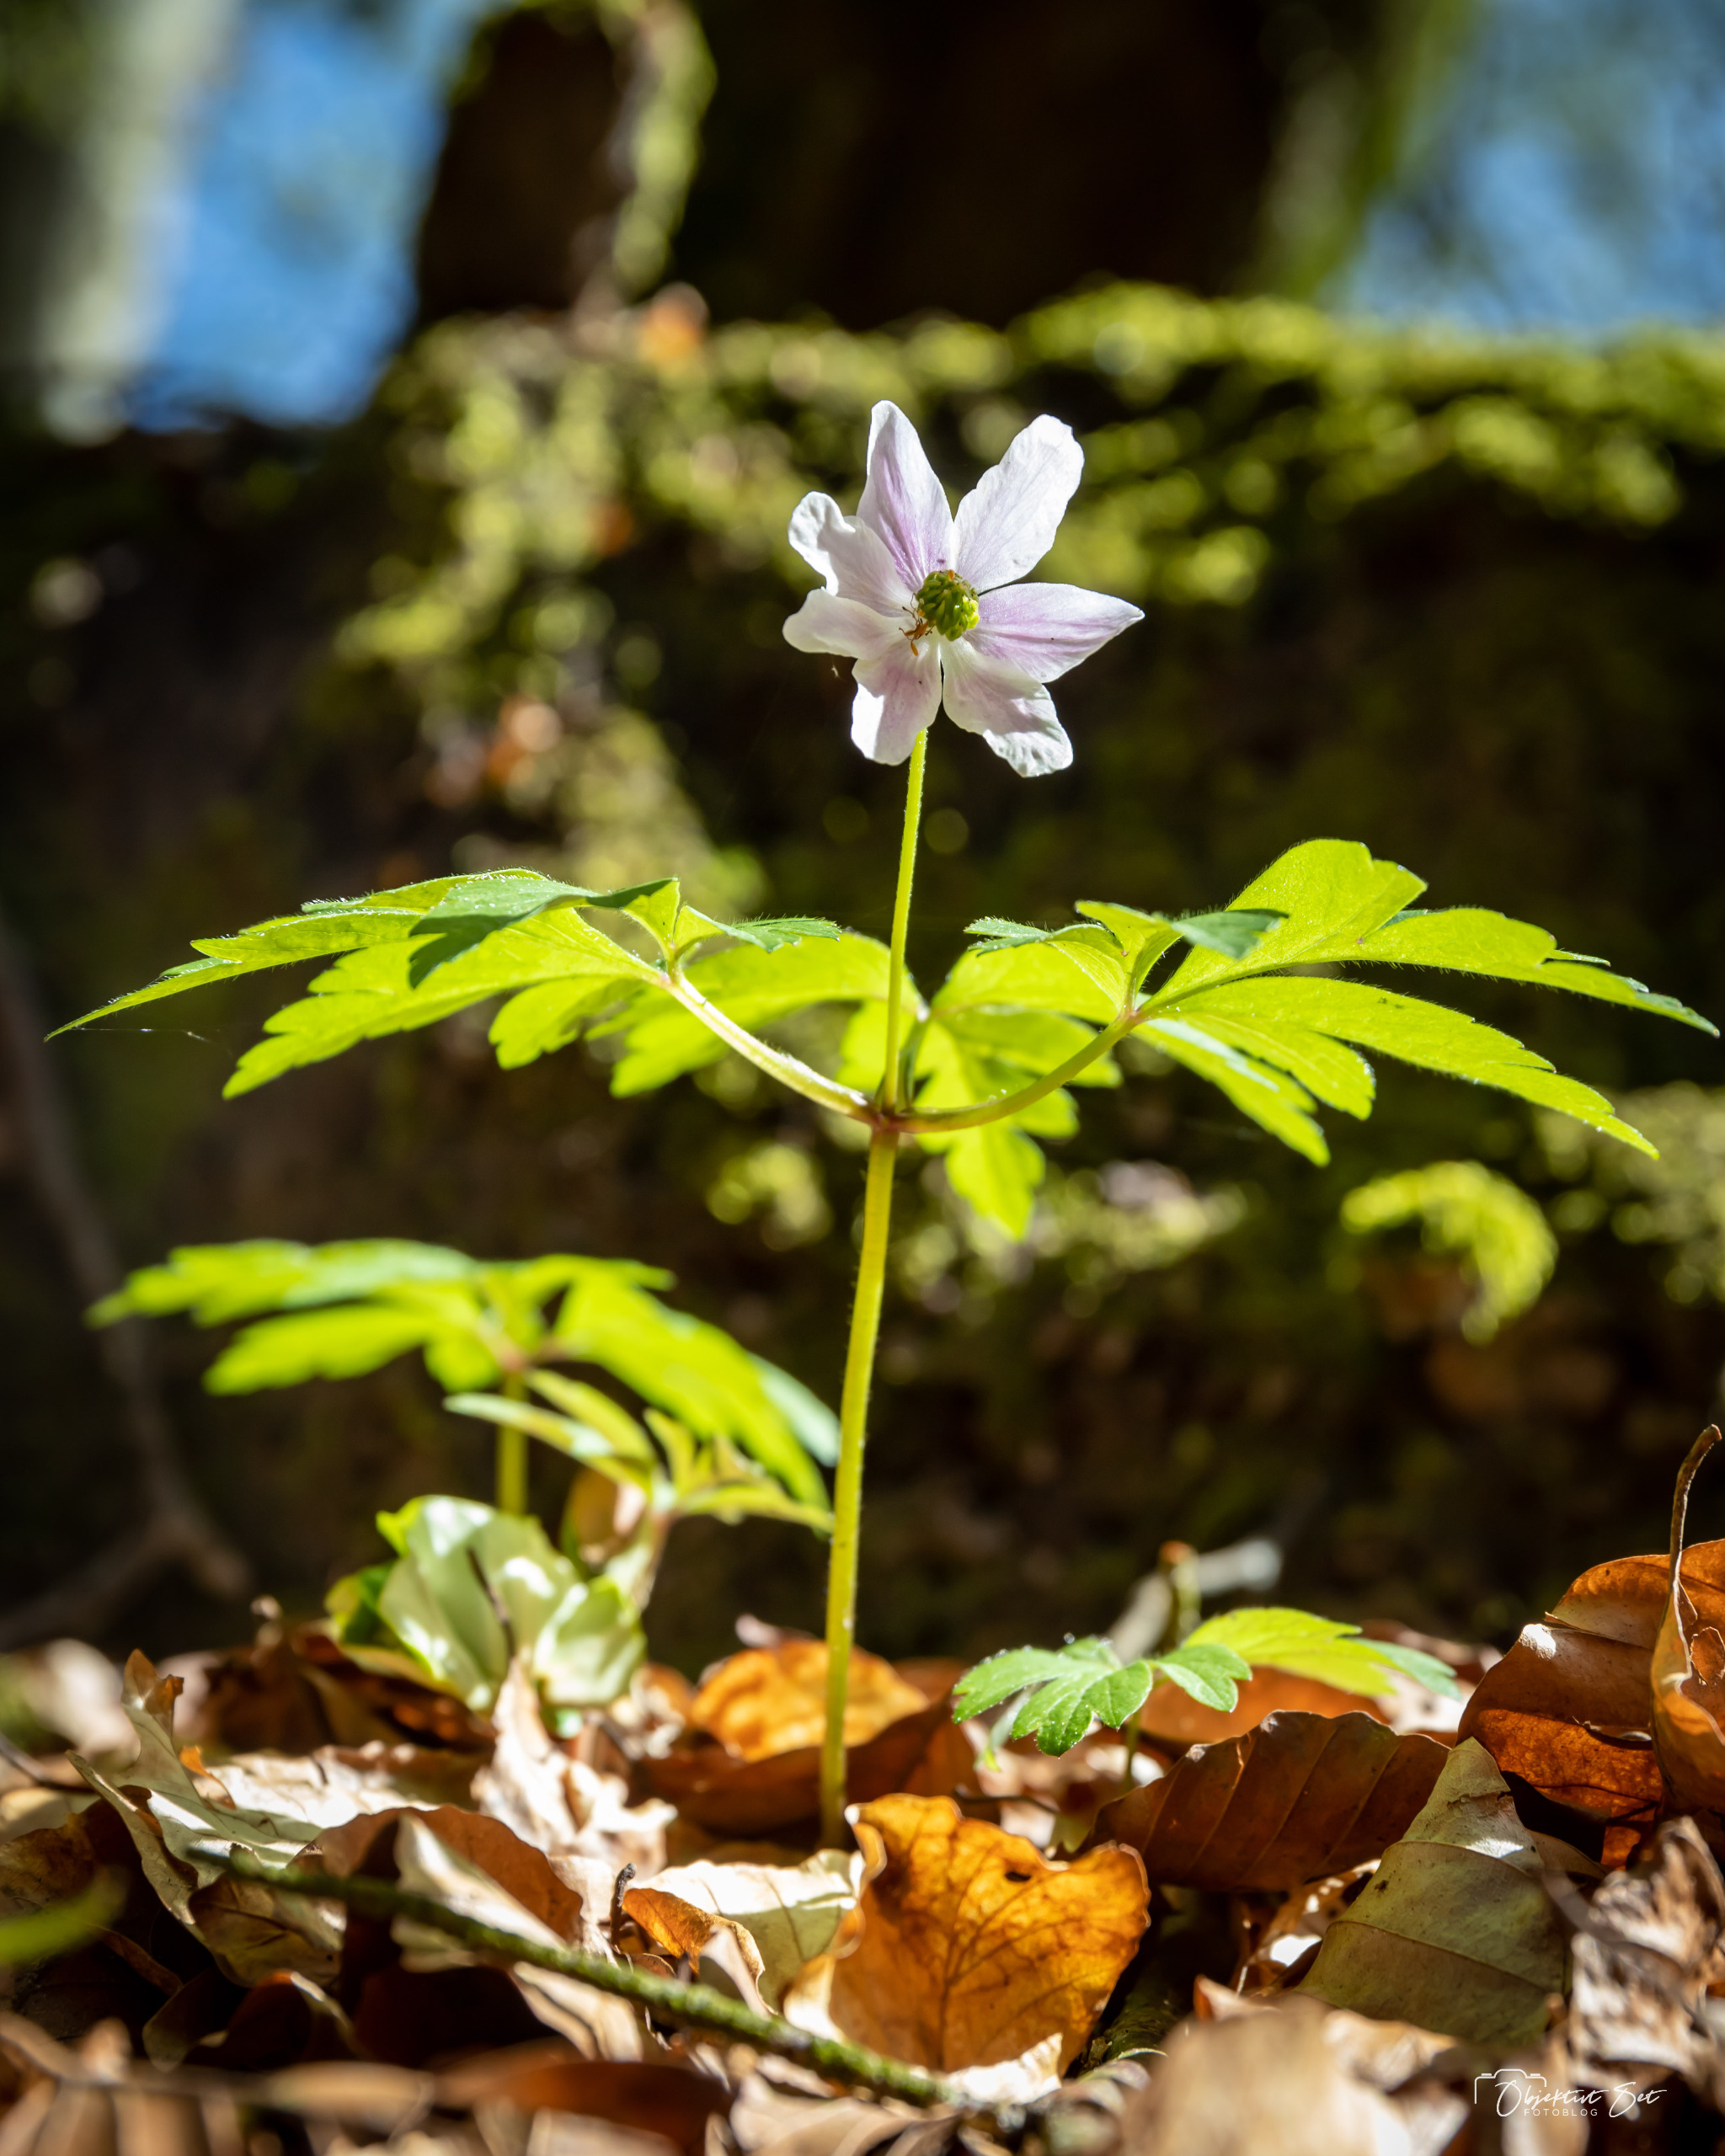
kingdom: Plantae
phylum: Tracheophyta
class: Magnoliopsida
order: Ranunculales
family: Ranunculaceae
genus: Anemone
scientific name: Anemone nemorosa
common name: Hvid anemone
